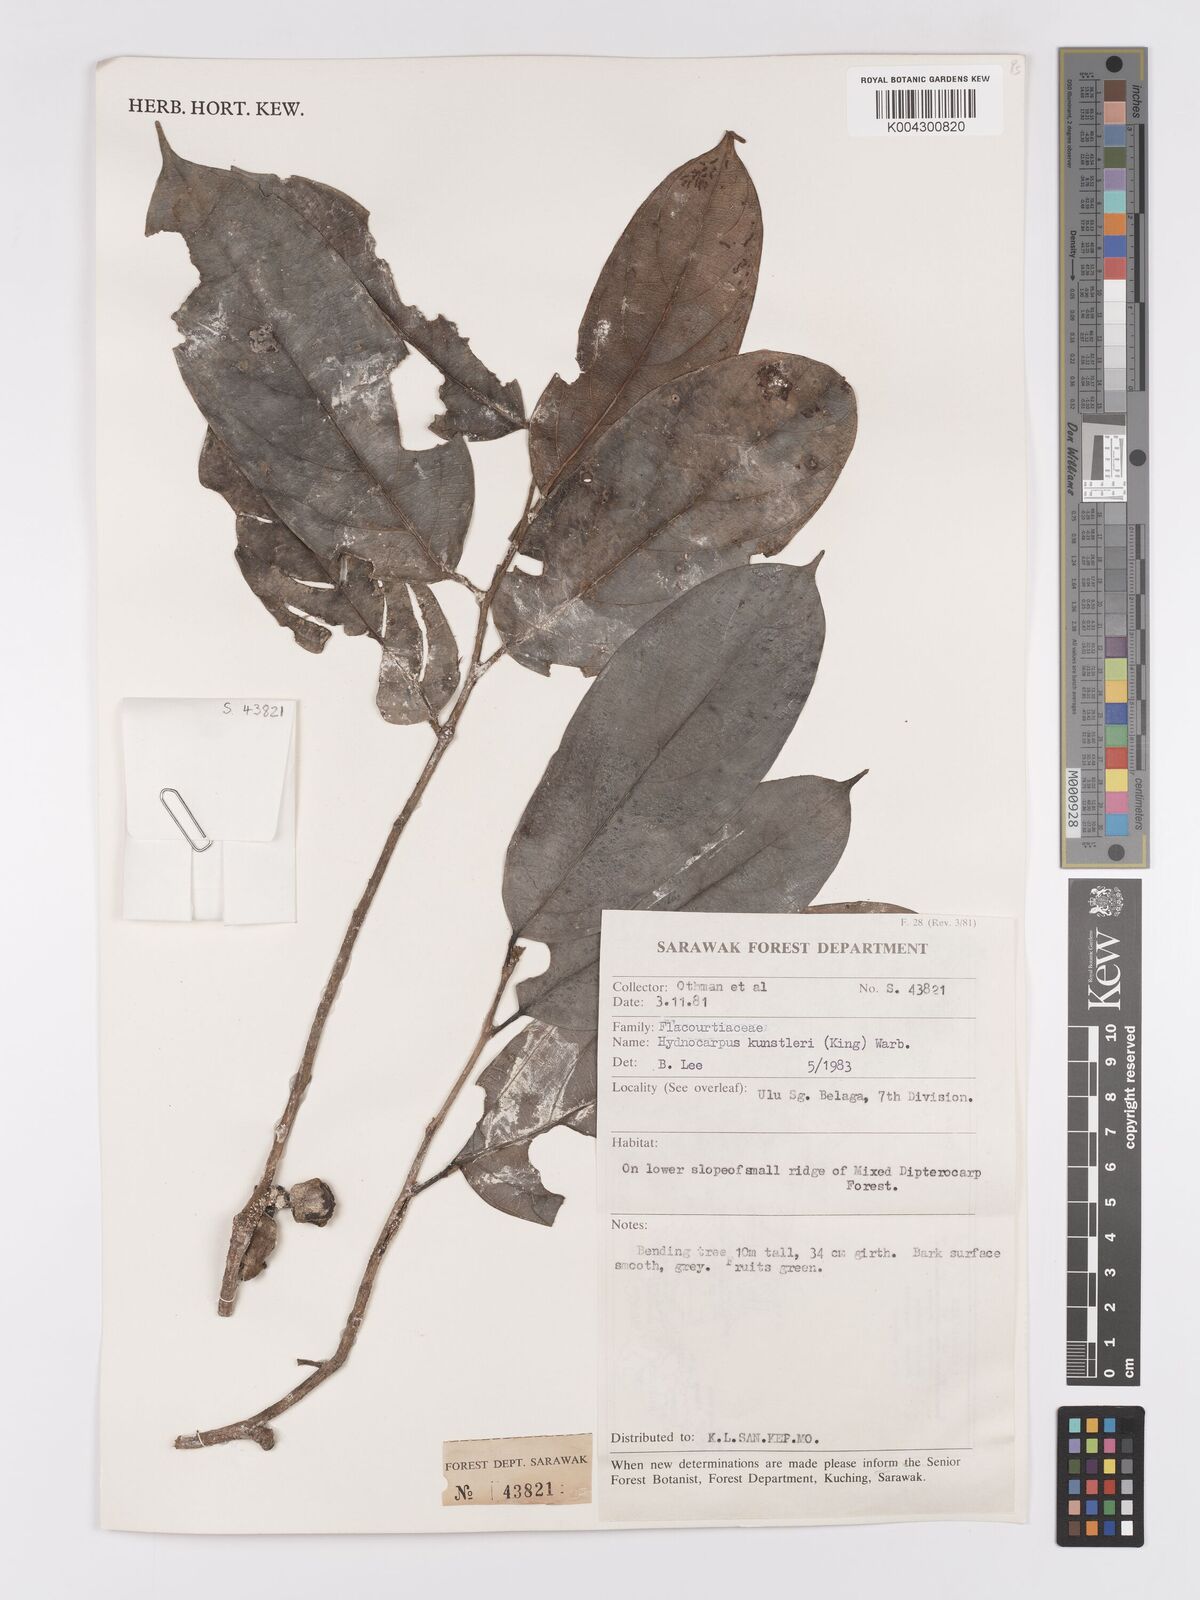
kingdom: Plantae
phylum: Tracheophyta
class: Magnoliopsida
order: Malpighiales
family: Achariaceae
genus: Hydnocarpus
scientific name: Hydnocarpus kunstleri
